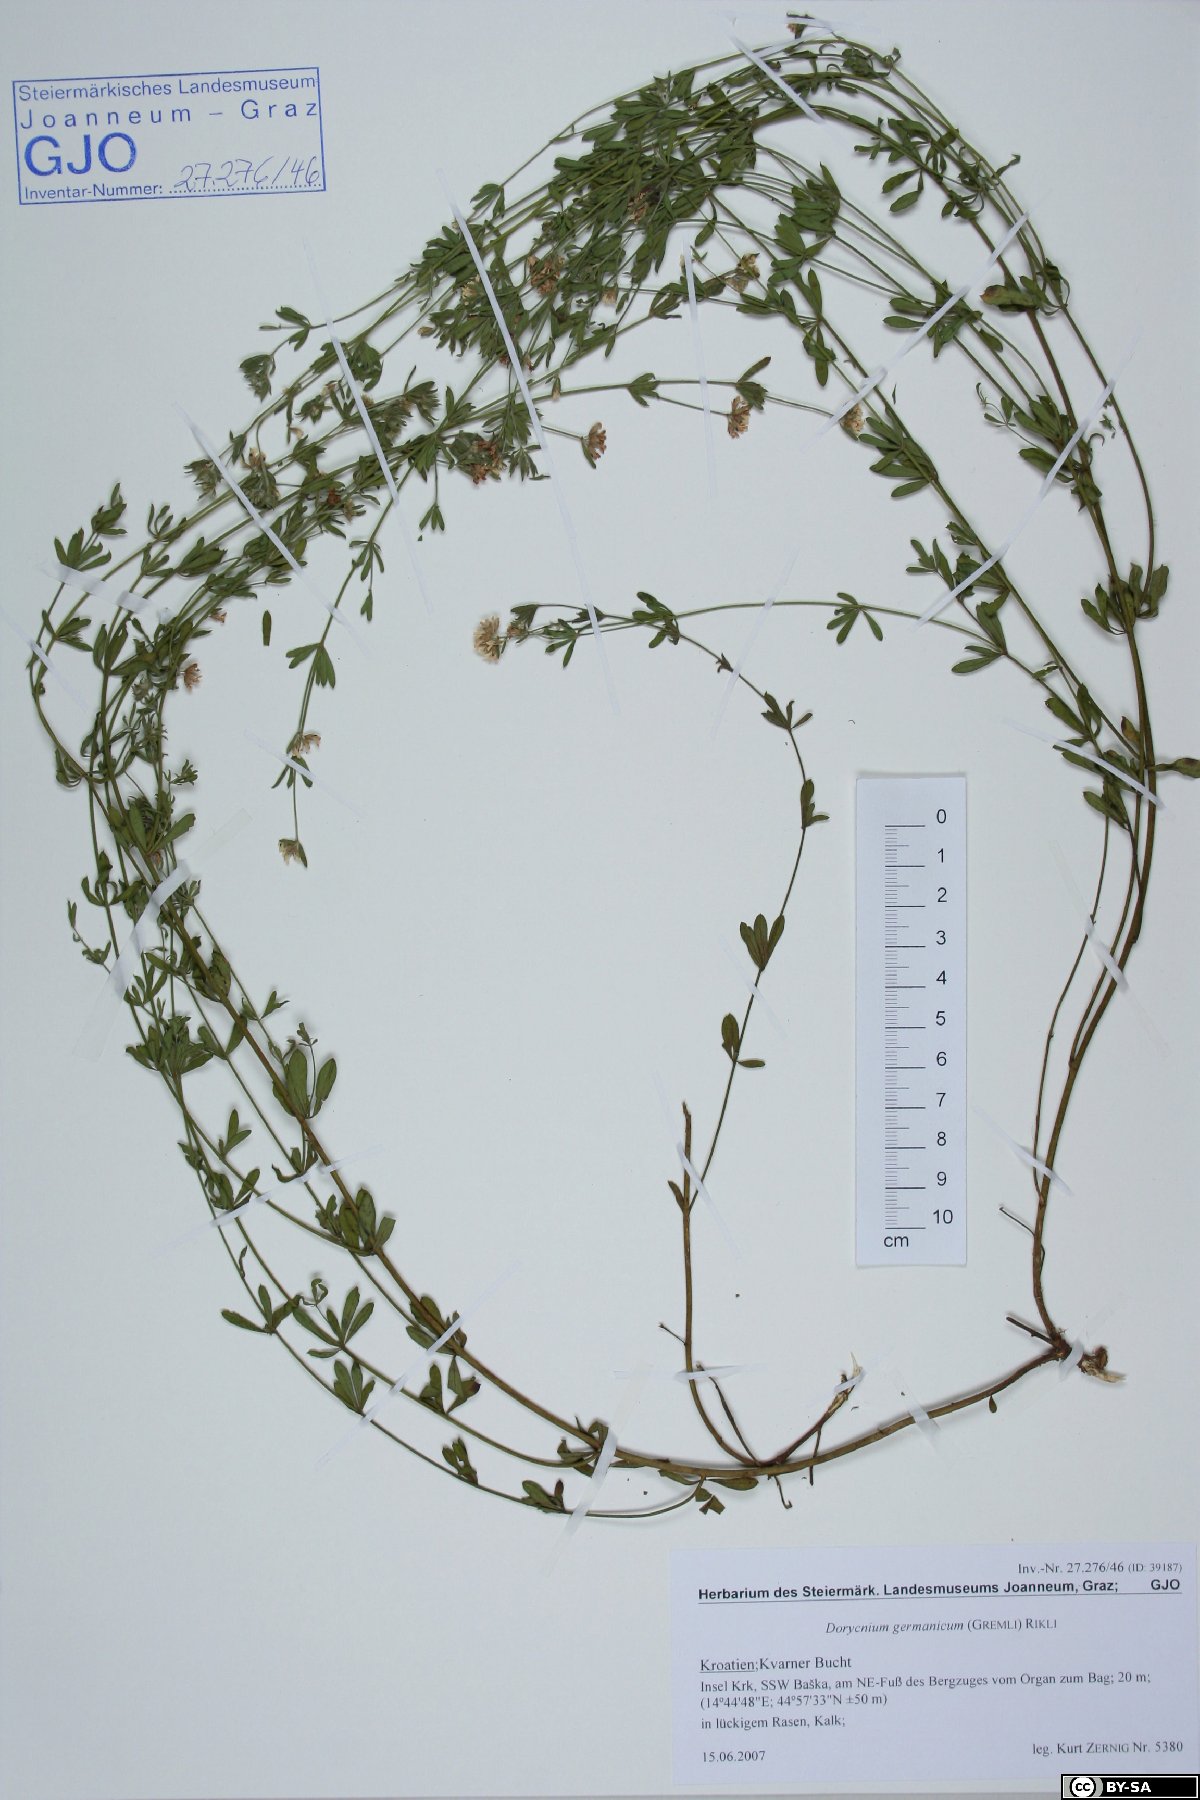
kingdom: Plantae
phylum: Tracheophyta
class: Magnoliopsida
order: Fabales
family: Fabaceae
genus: Lotus
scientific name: Lotus germanicus
